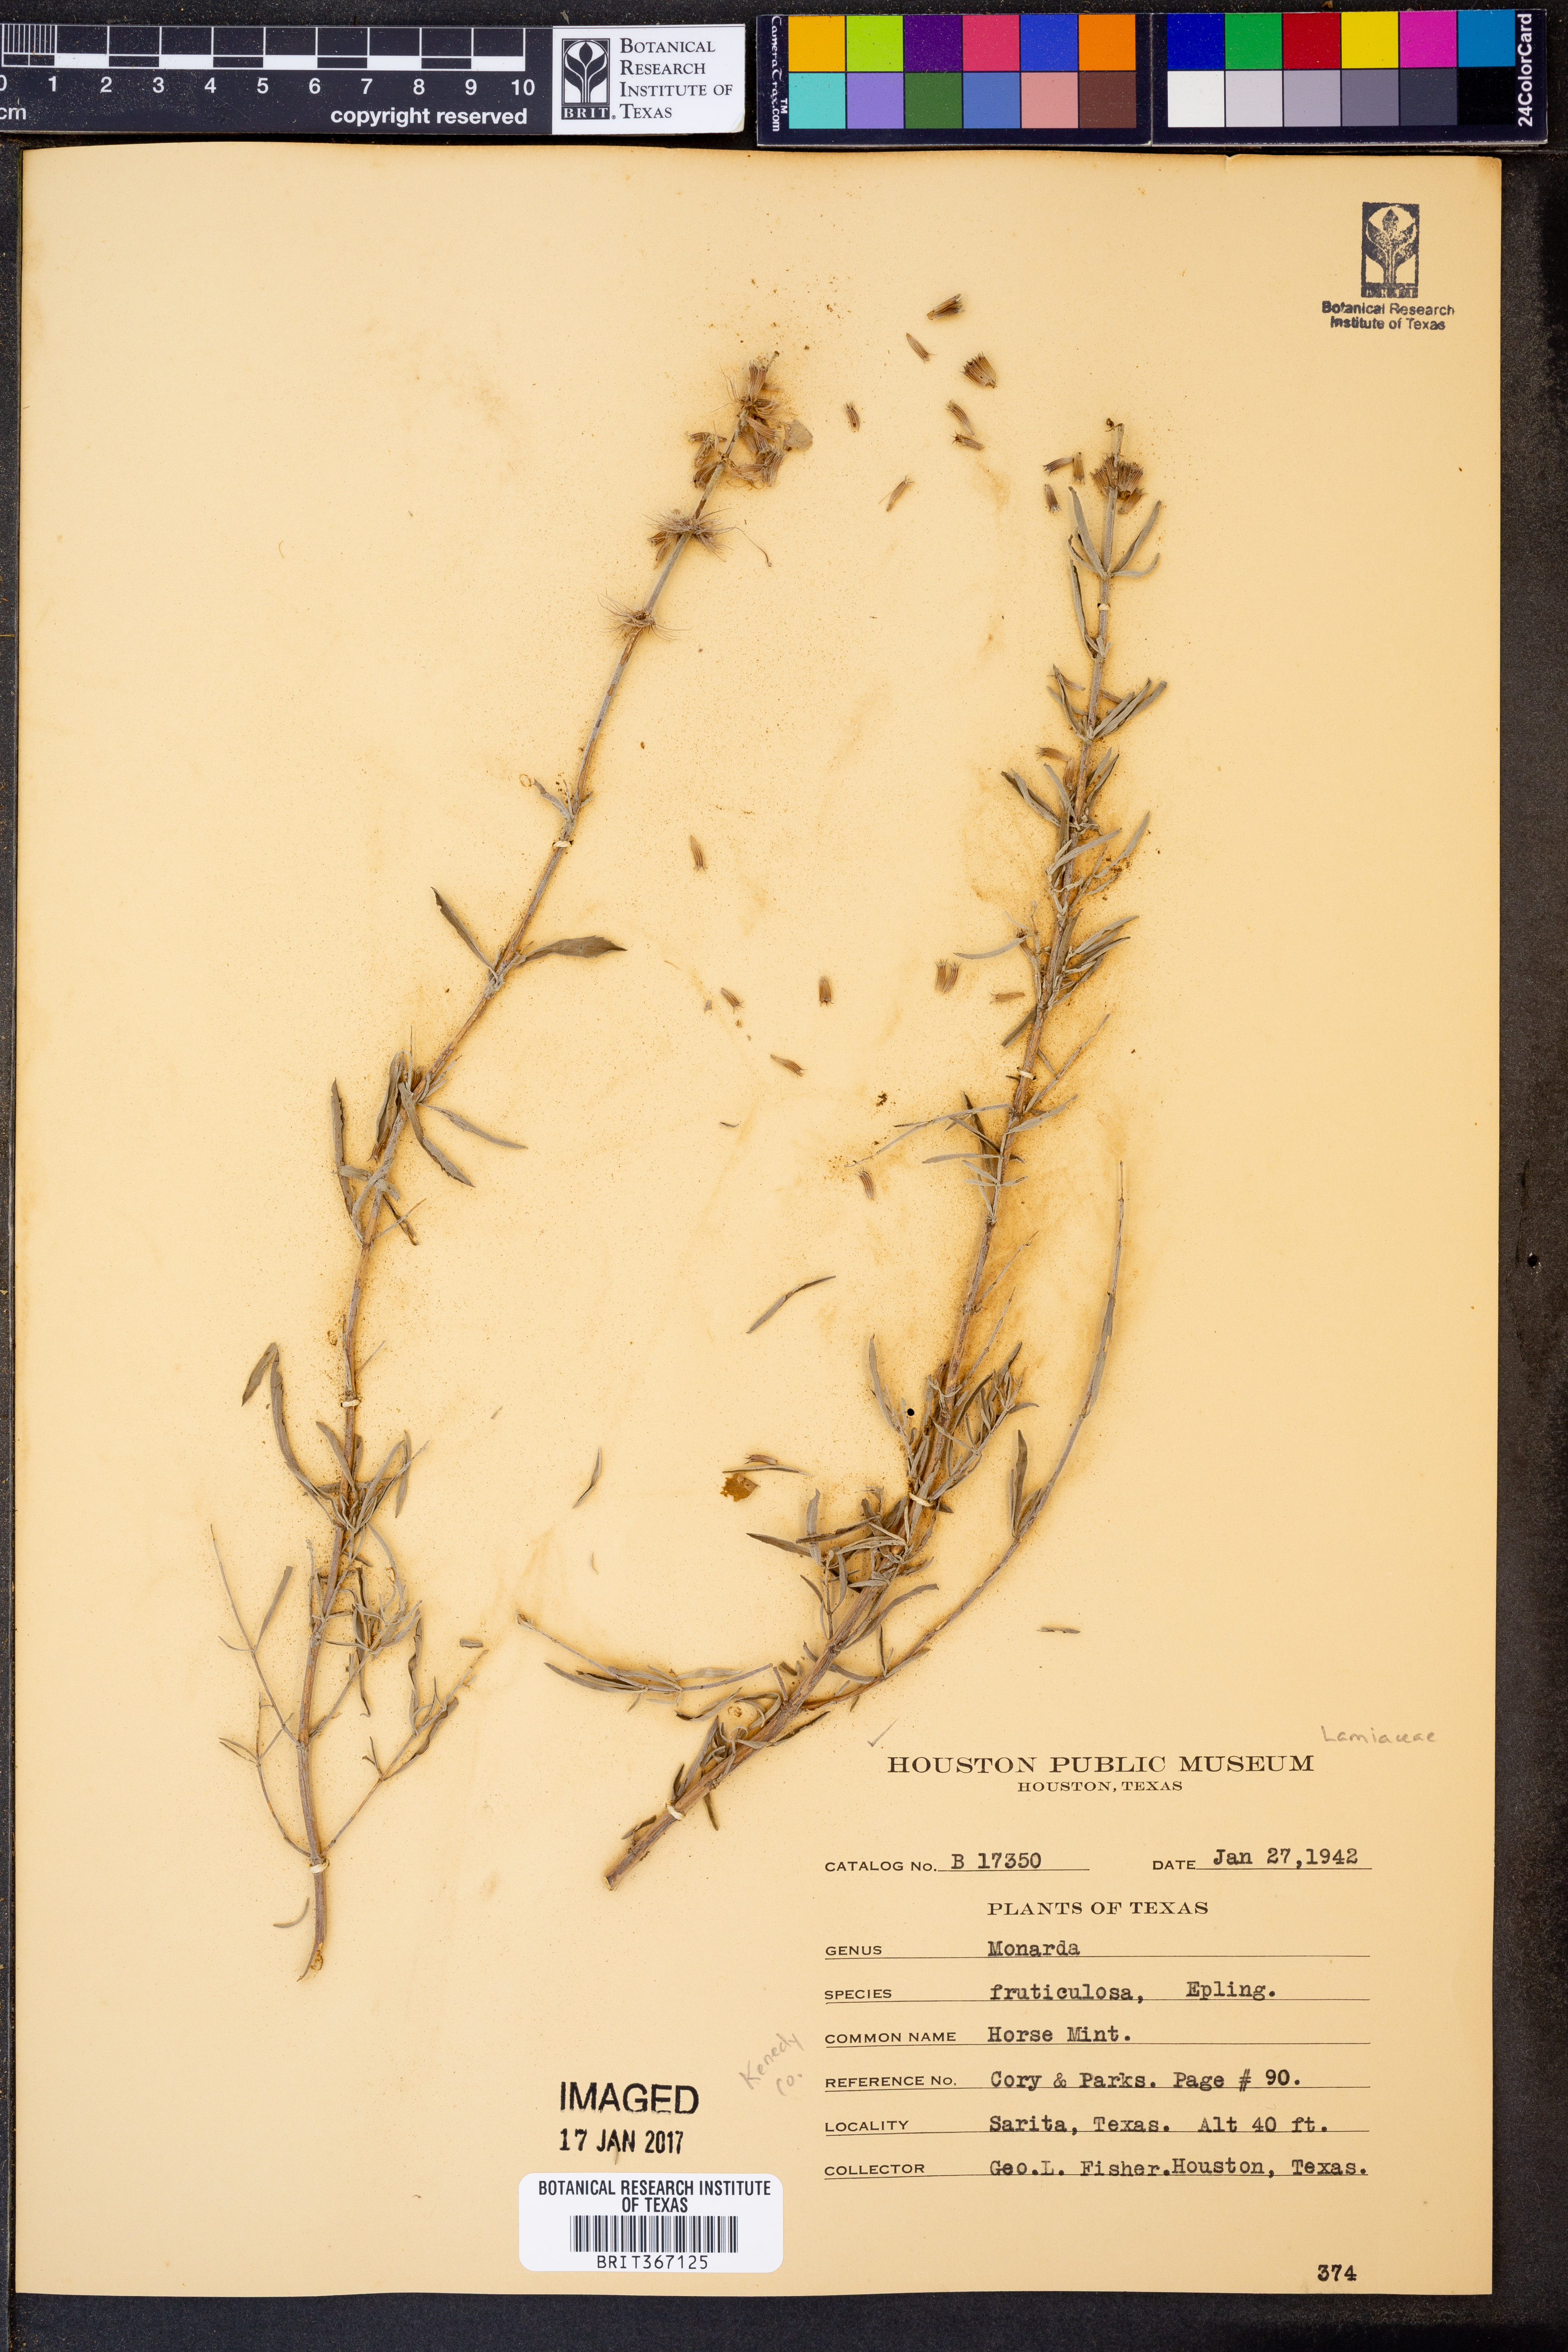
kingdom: Plantae
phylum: Tracheophyta
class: Magnoliopsida
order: Lamiales
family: Lamiaceae
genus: Monarda
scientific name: Monarda fruticulosa
